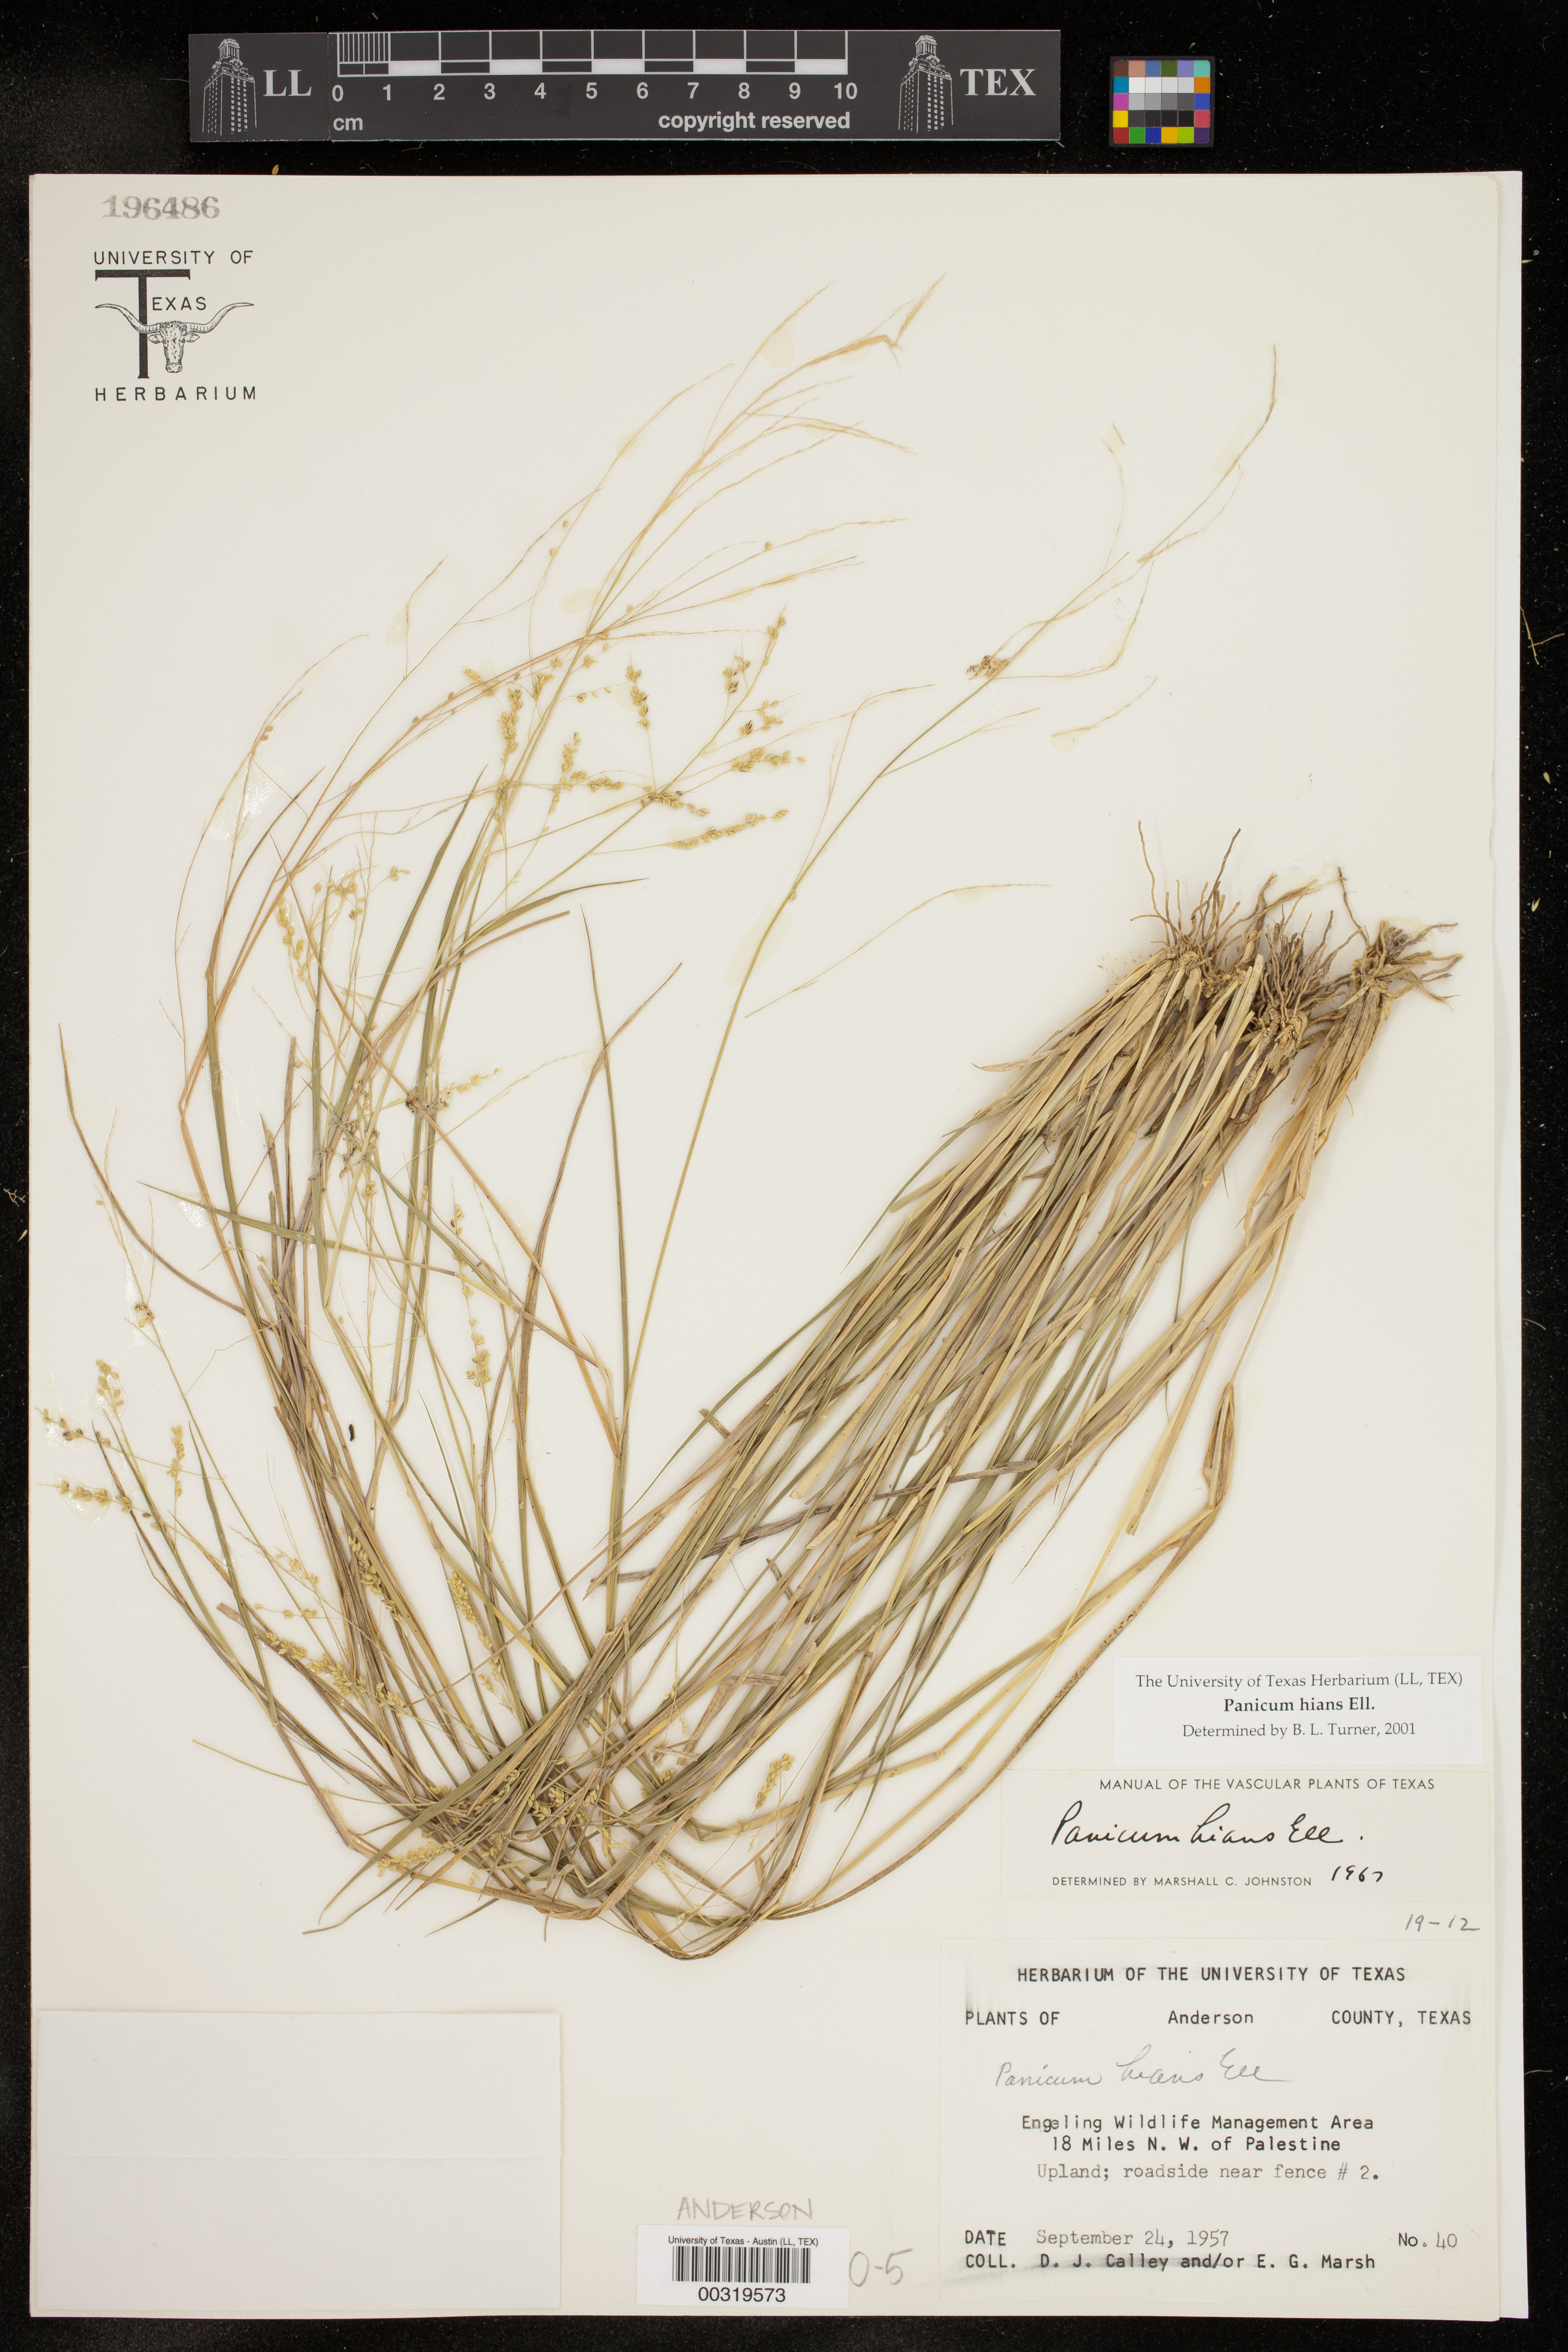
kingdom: Plantae
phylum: Tracheophyta
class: Liliopsida
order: Poales
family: Poaceae
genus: Steinchisma
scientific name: Steinchisma hians
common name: Gaping panic grass
